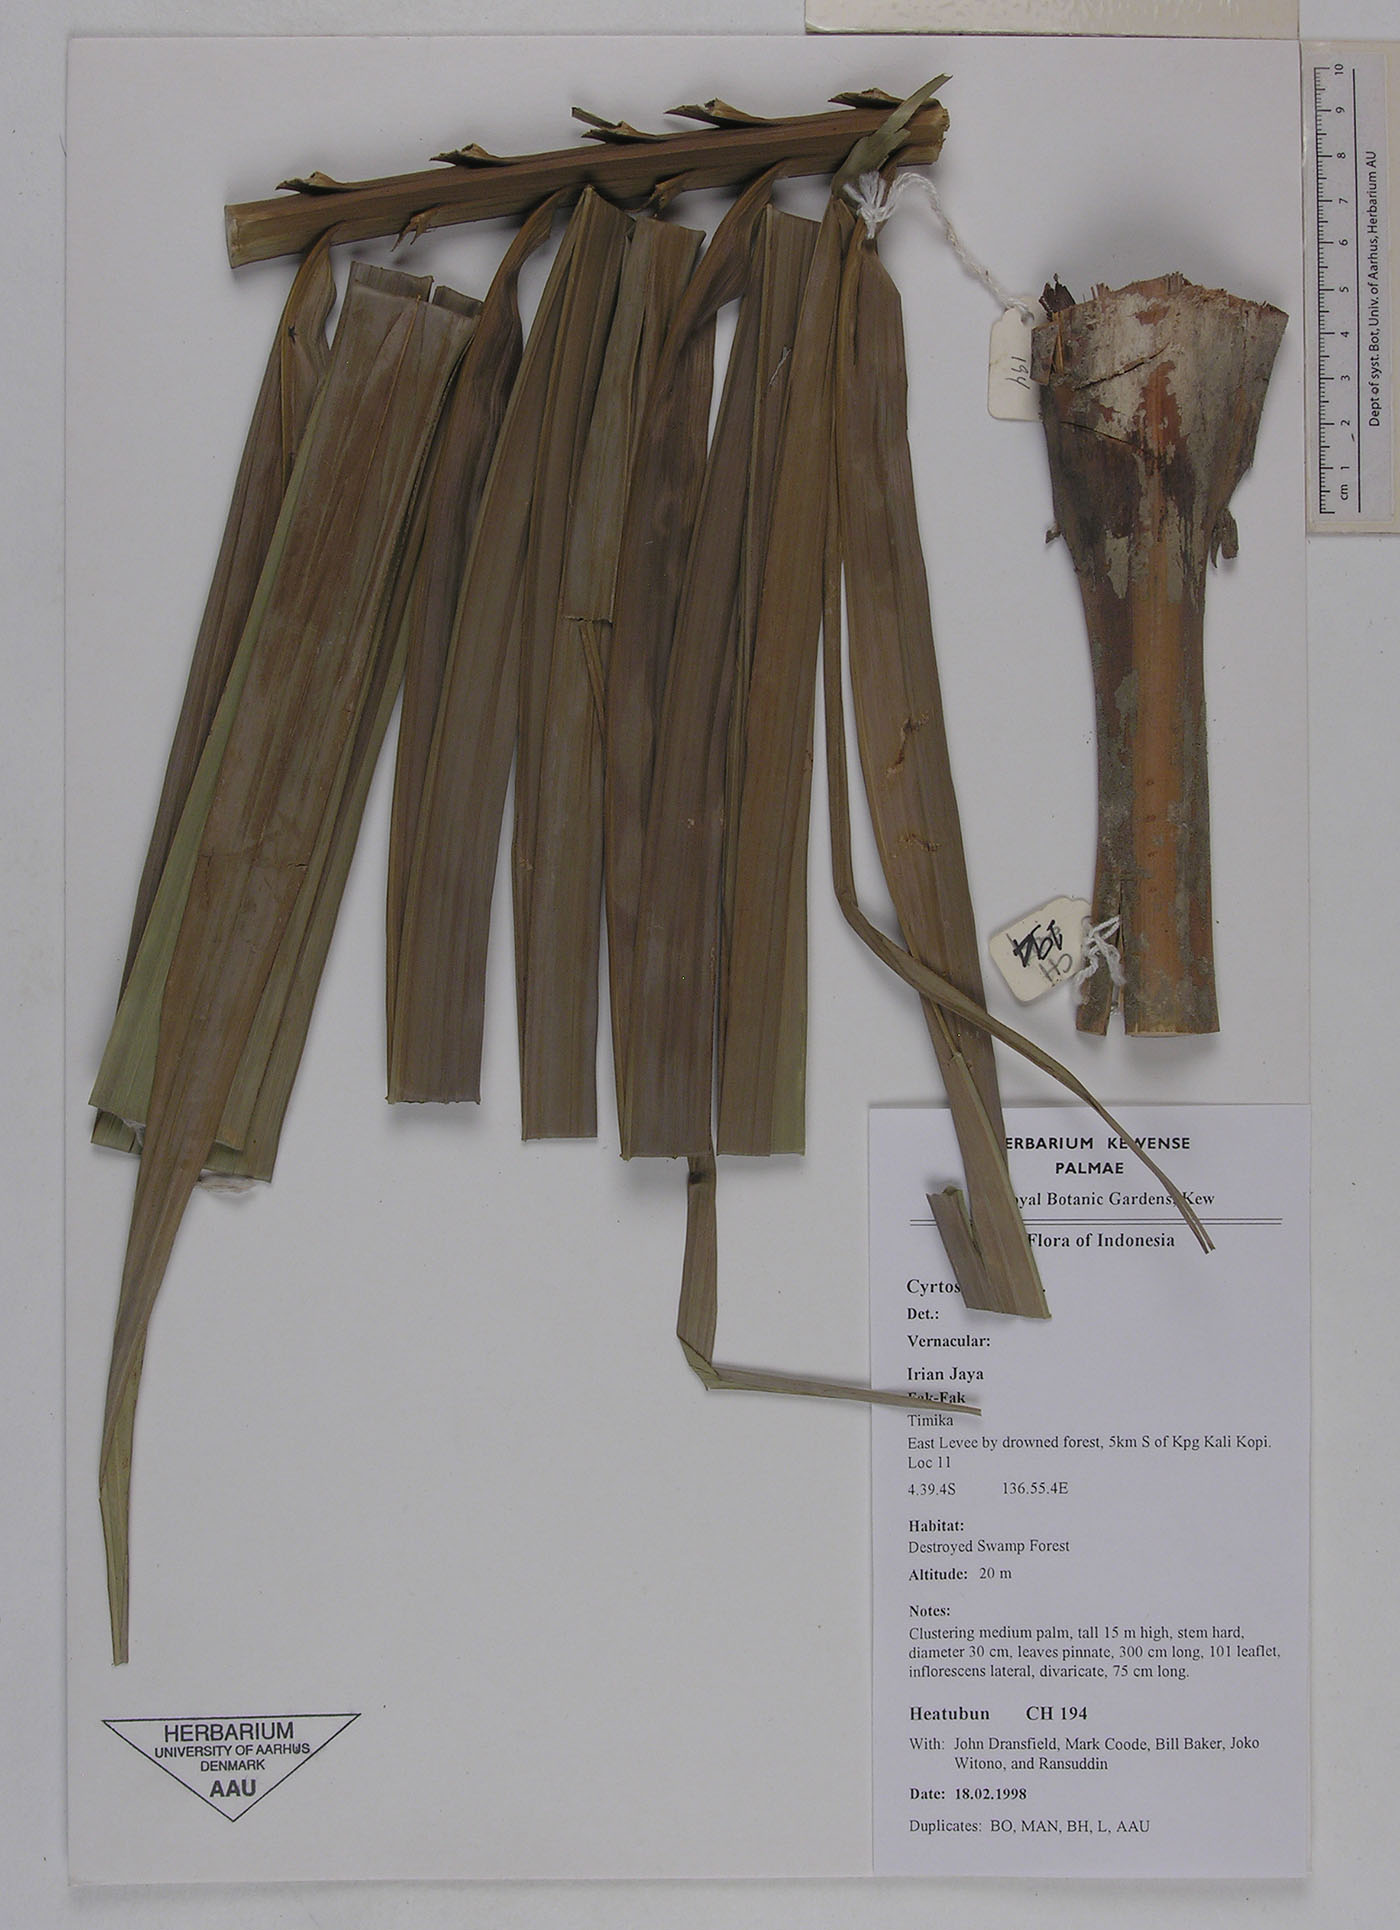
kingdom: Plantae
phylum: Tracheophyta
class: Liliopsida
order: Arecales
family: Arecaceae
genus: Cyrtostachys
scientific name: Cyrtostachys
